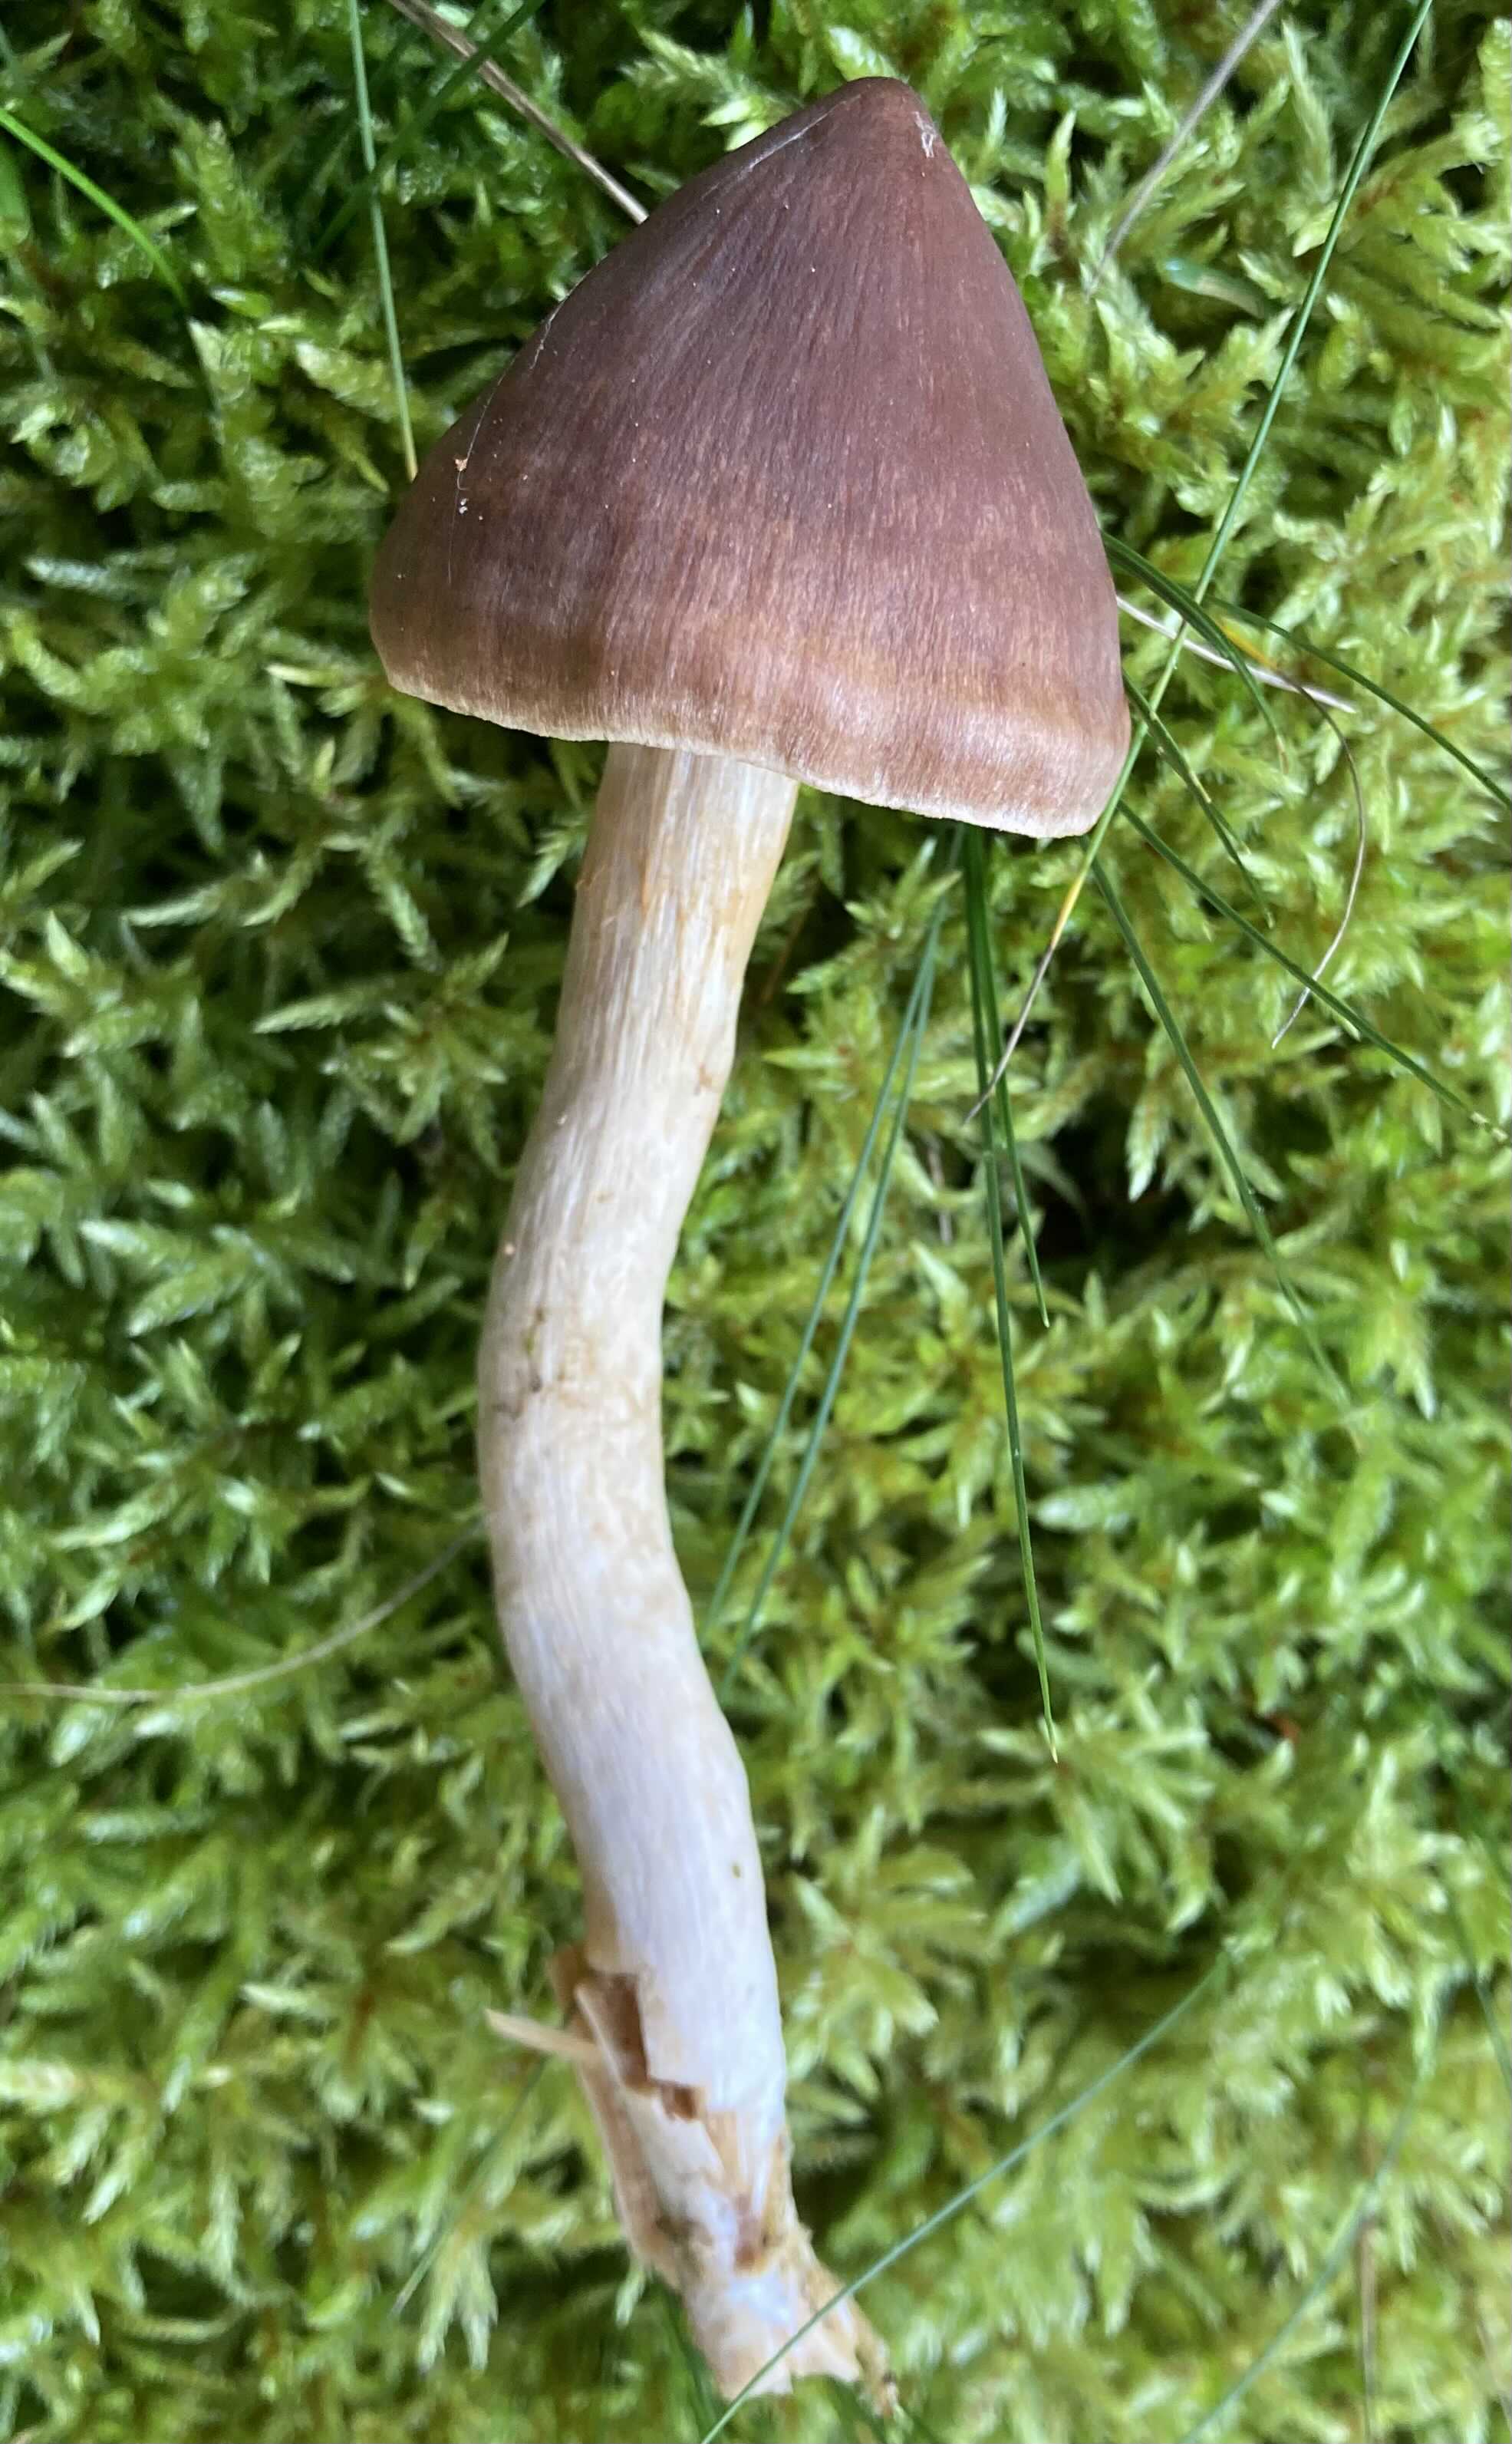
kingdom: Fungi
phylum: Basidiomycota
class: Agaricomycetes
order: Agaricales
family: Cortinariaceae
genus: Cortinarius
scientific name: Cortinarius
